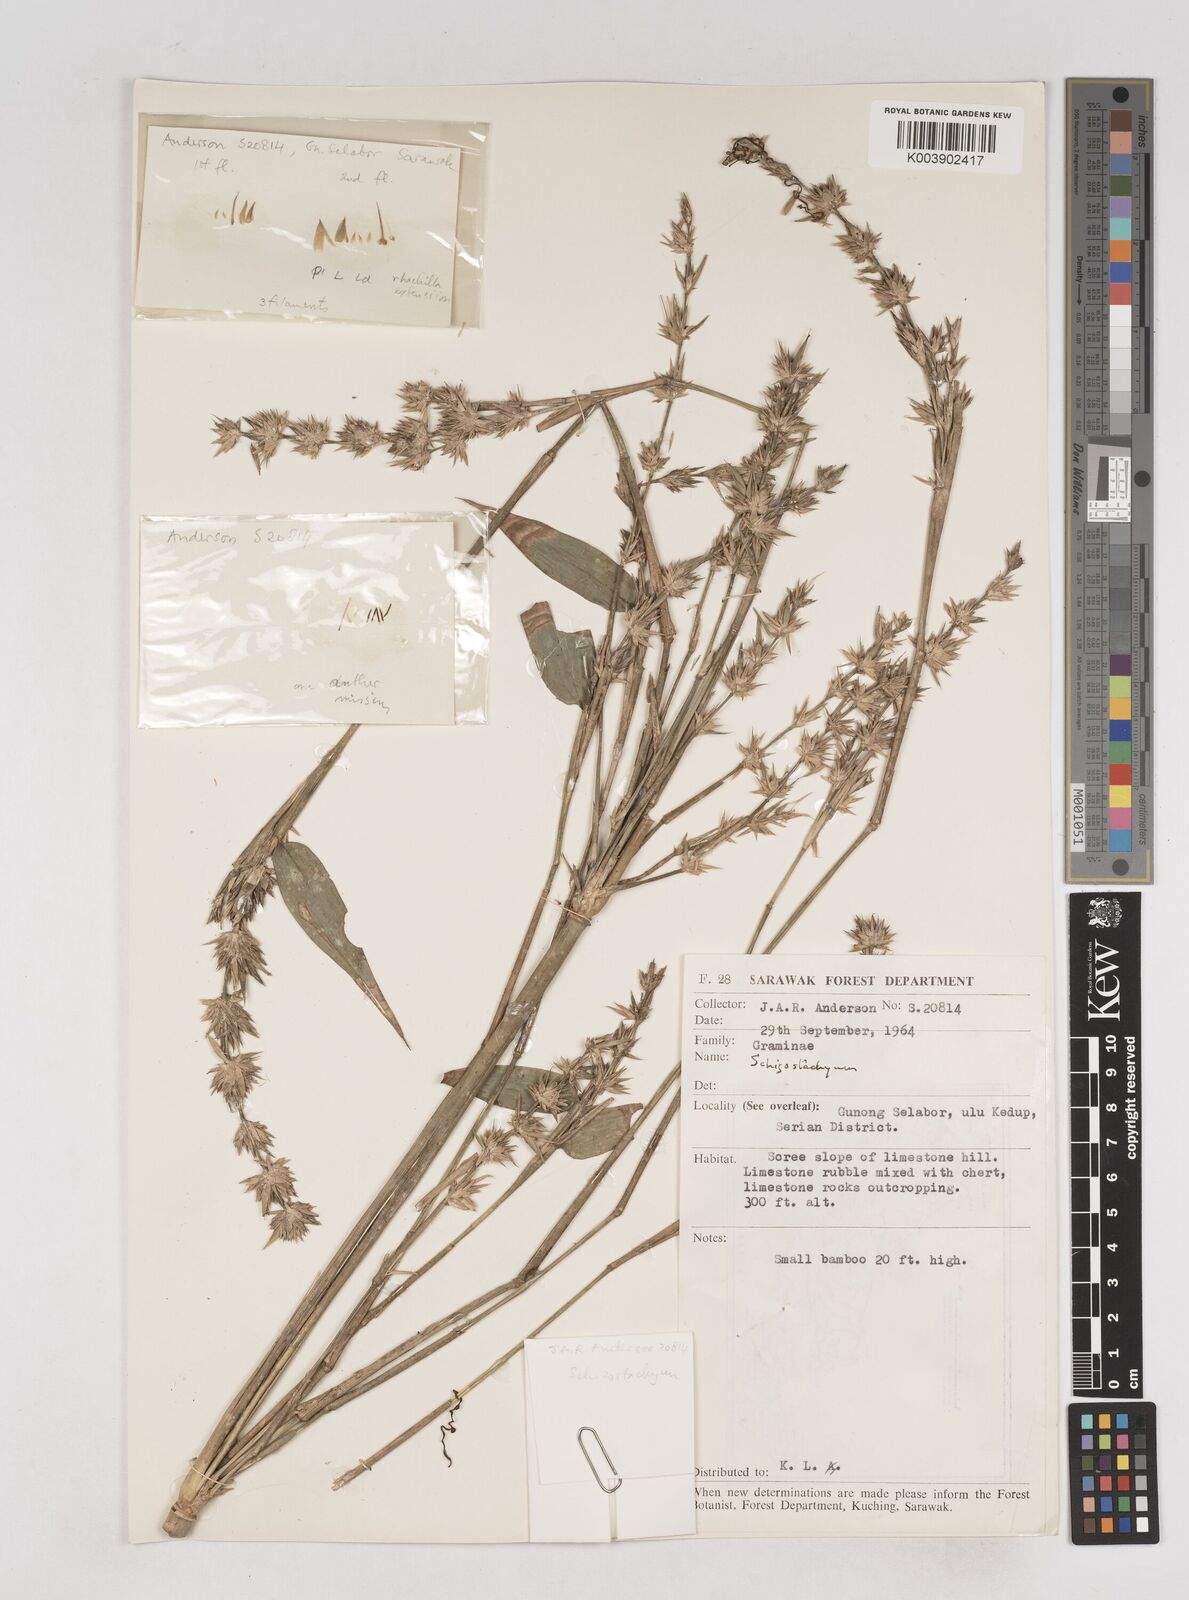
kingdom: Plantae
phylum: Tracheophyta
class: Liliopsida
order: Poales
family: Poaceae
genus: Schizostachyum
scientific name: Schizostachyum
